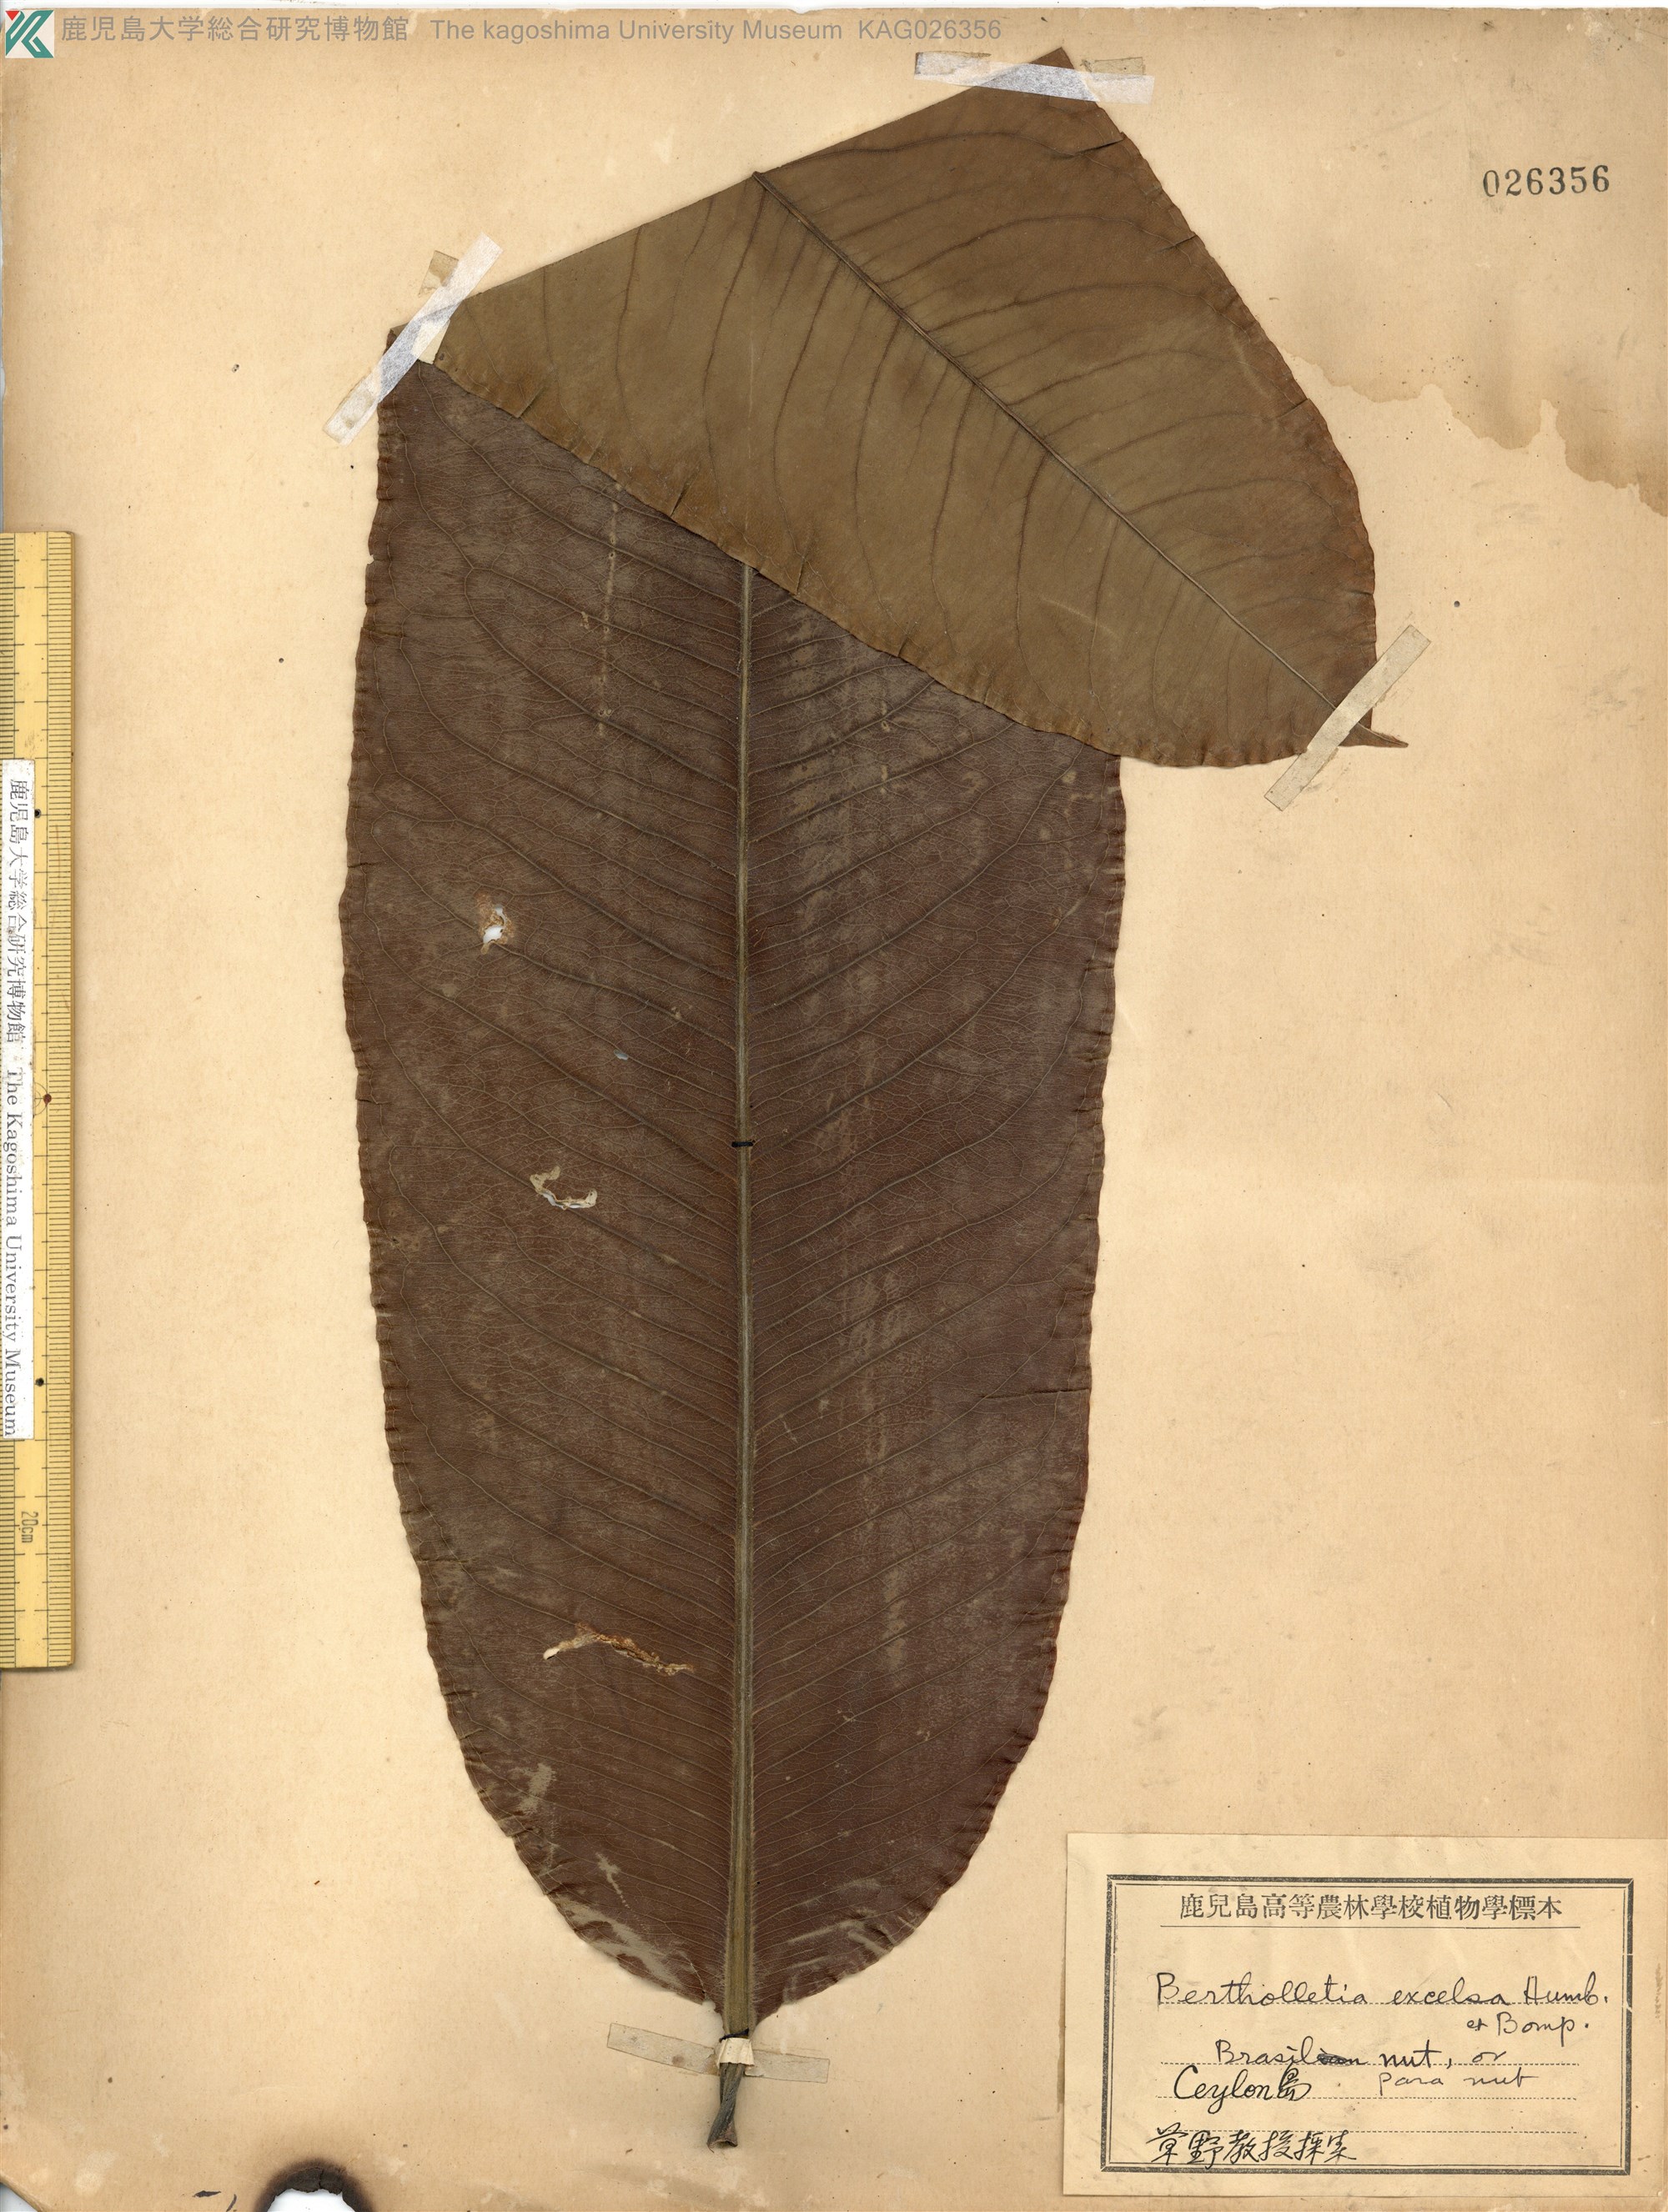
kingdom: Plantae
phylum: Tracheophyta
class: Magnoliopsida
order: Ericales
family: Lecythidaceae
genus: Bertholletia
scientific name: Bertholletia excelsa
